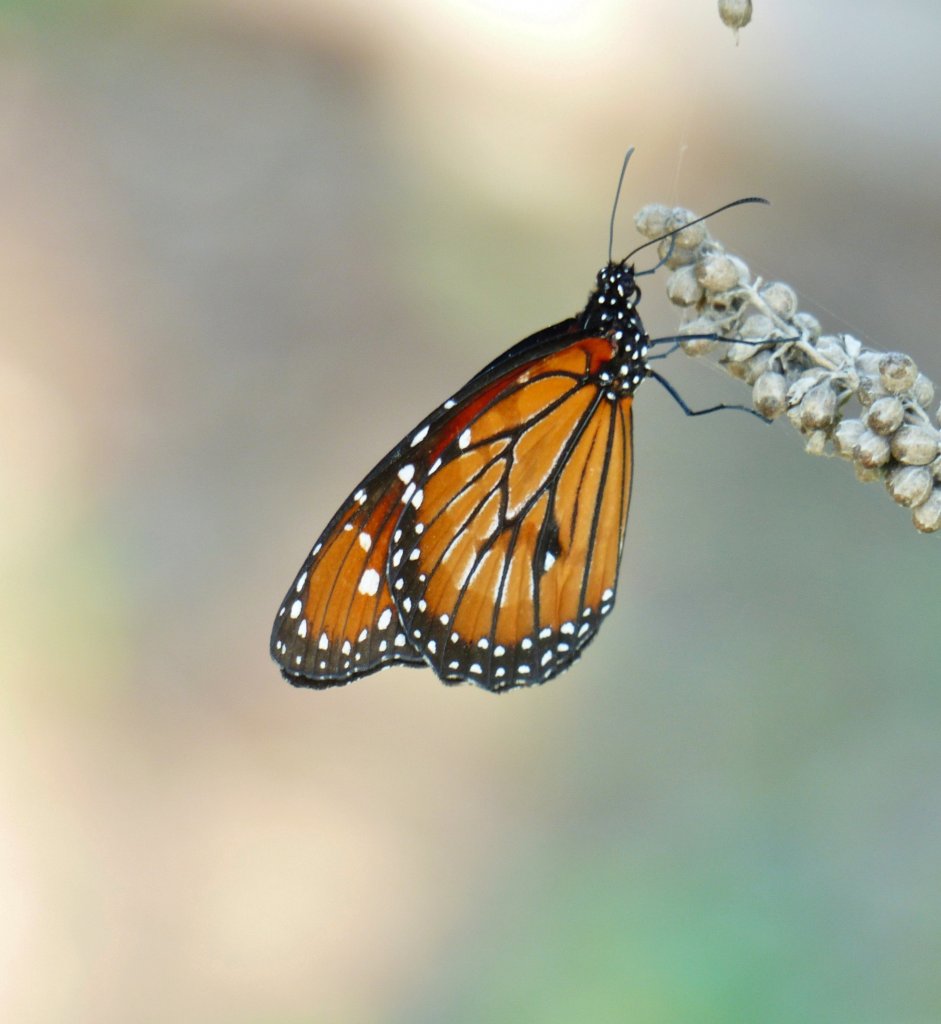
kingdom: Animalia
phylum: Arthropoda
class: Insecta
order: Lepidoptera
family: Nymphalidae
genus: Danaus
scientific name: Danaus eresimus
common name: Soldier
